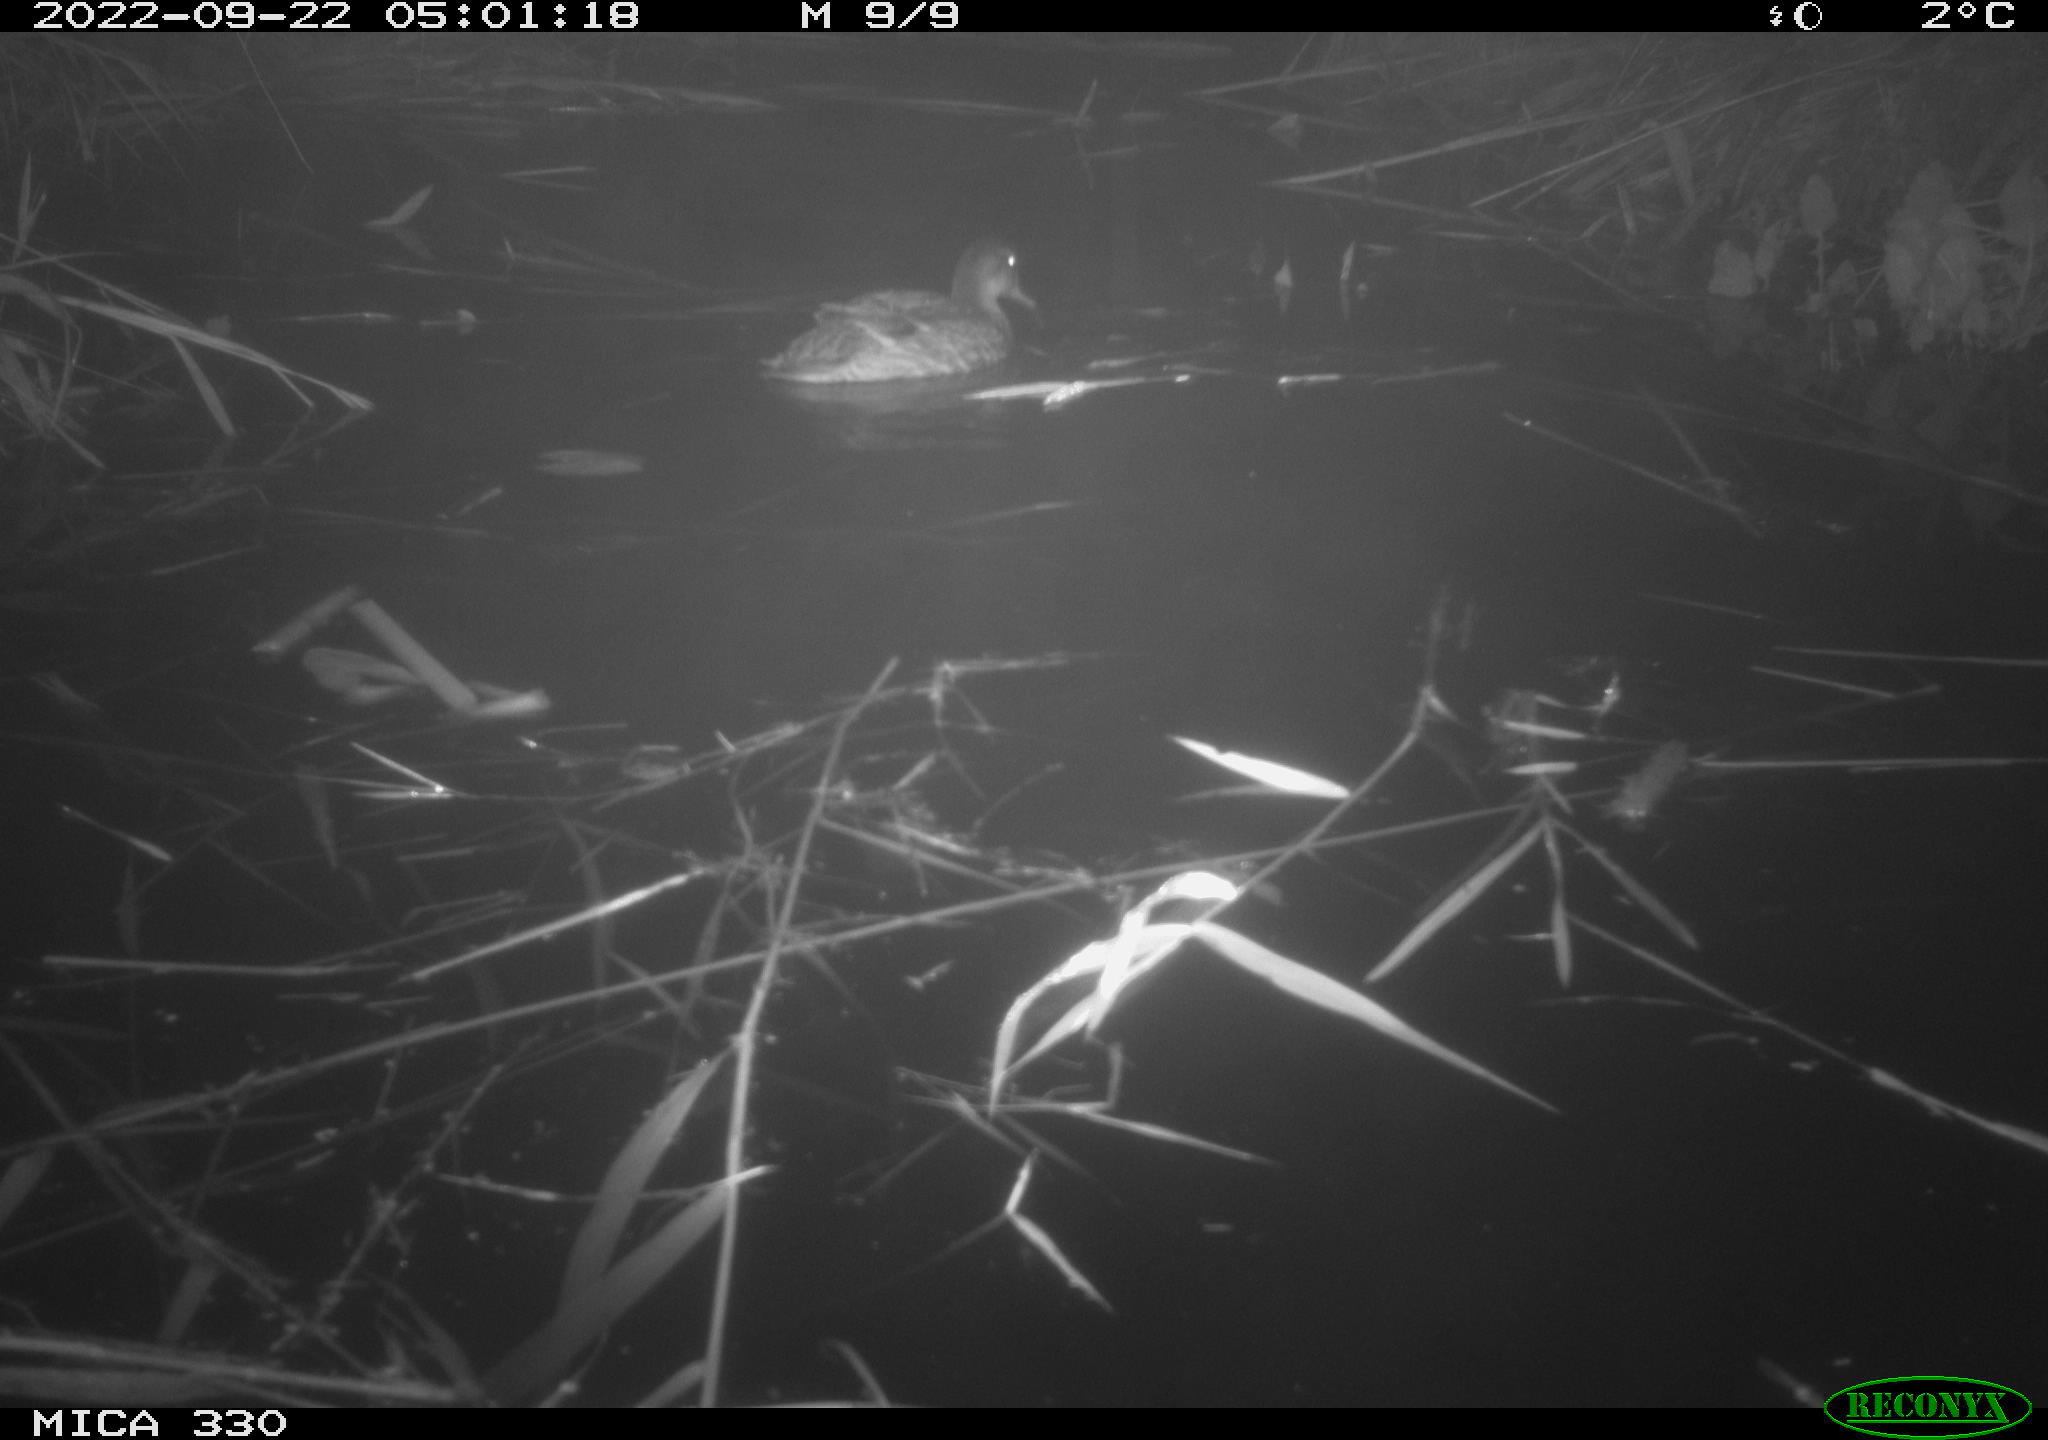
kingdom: Animalia
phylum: Chordata
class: Aves
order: Anseriformes
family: Anatidae
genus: Anas
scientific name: Anas platyrhynchos
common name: Mallard
